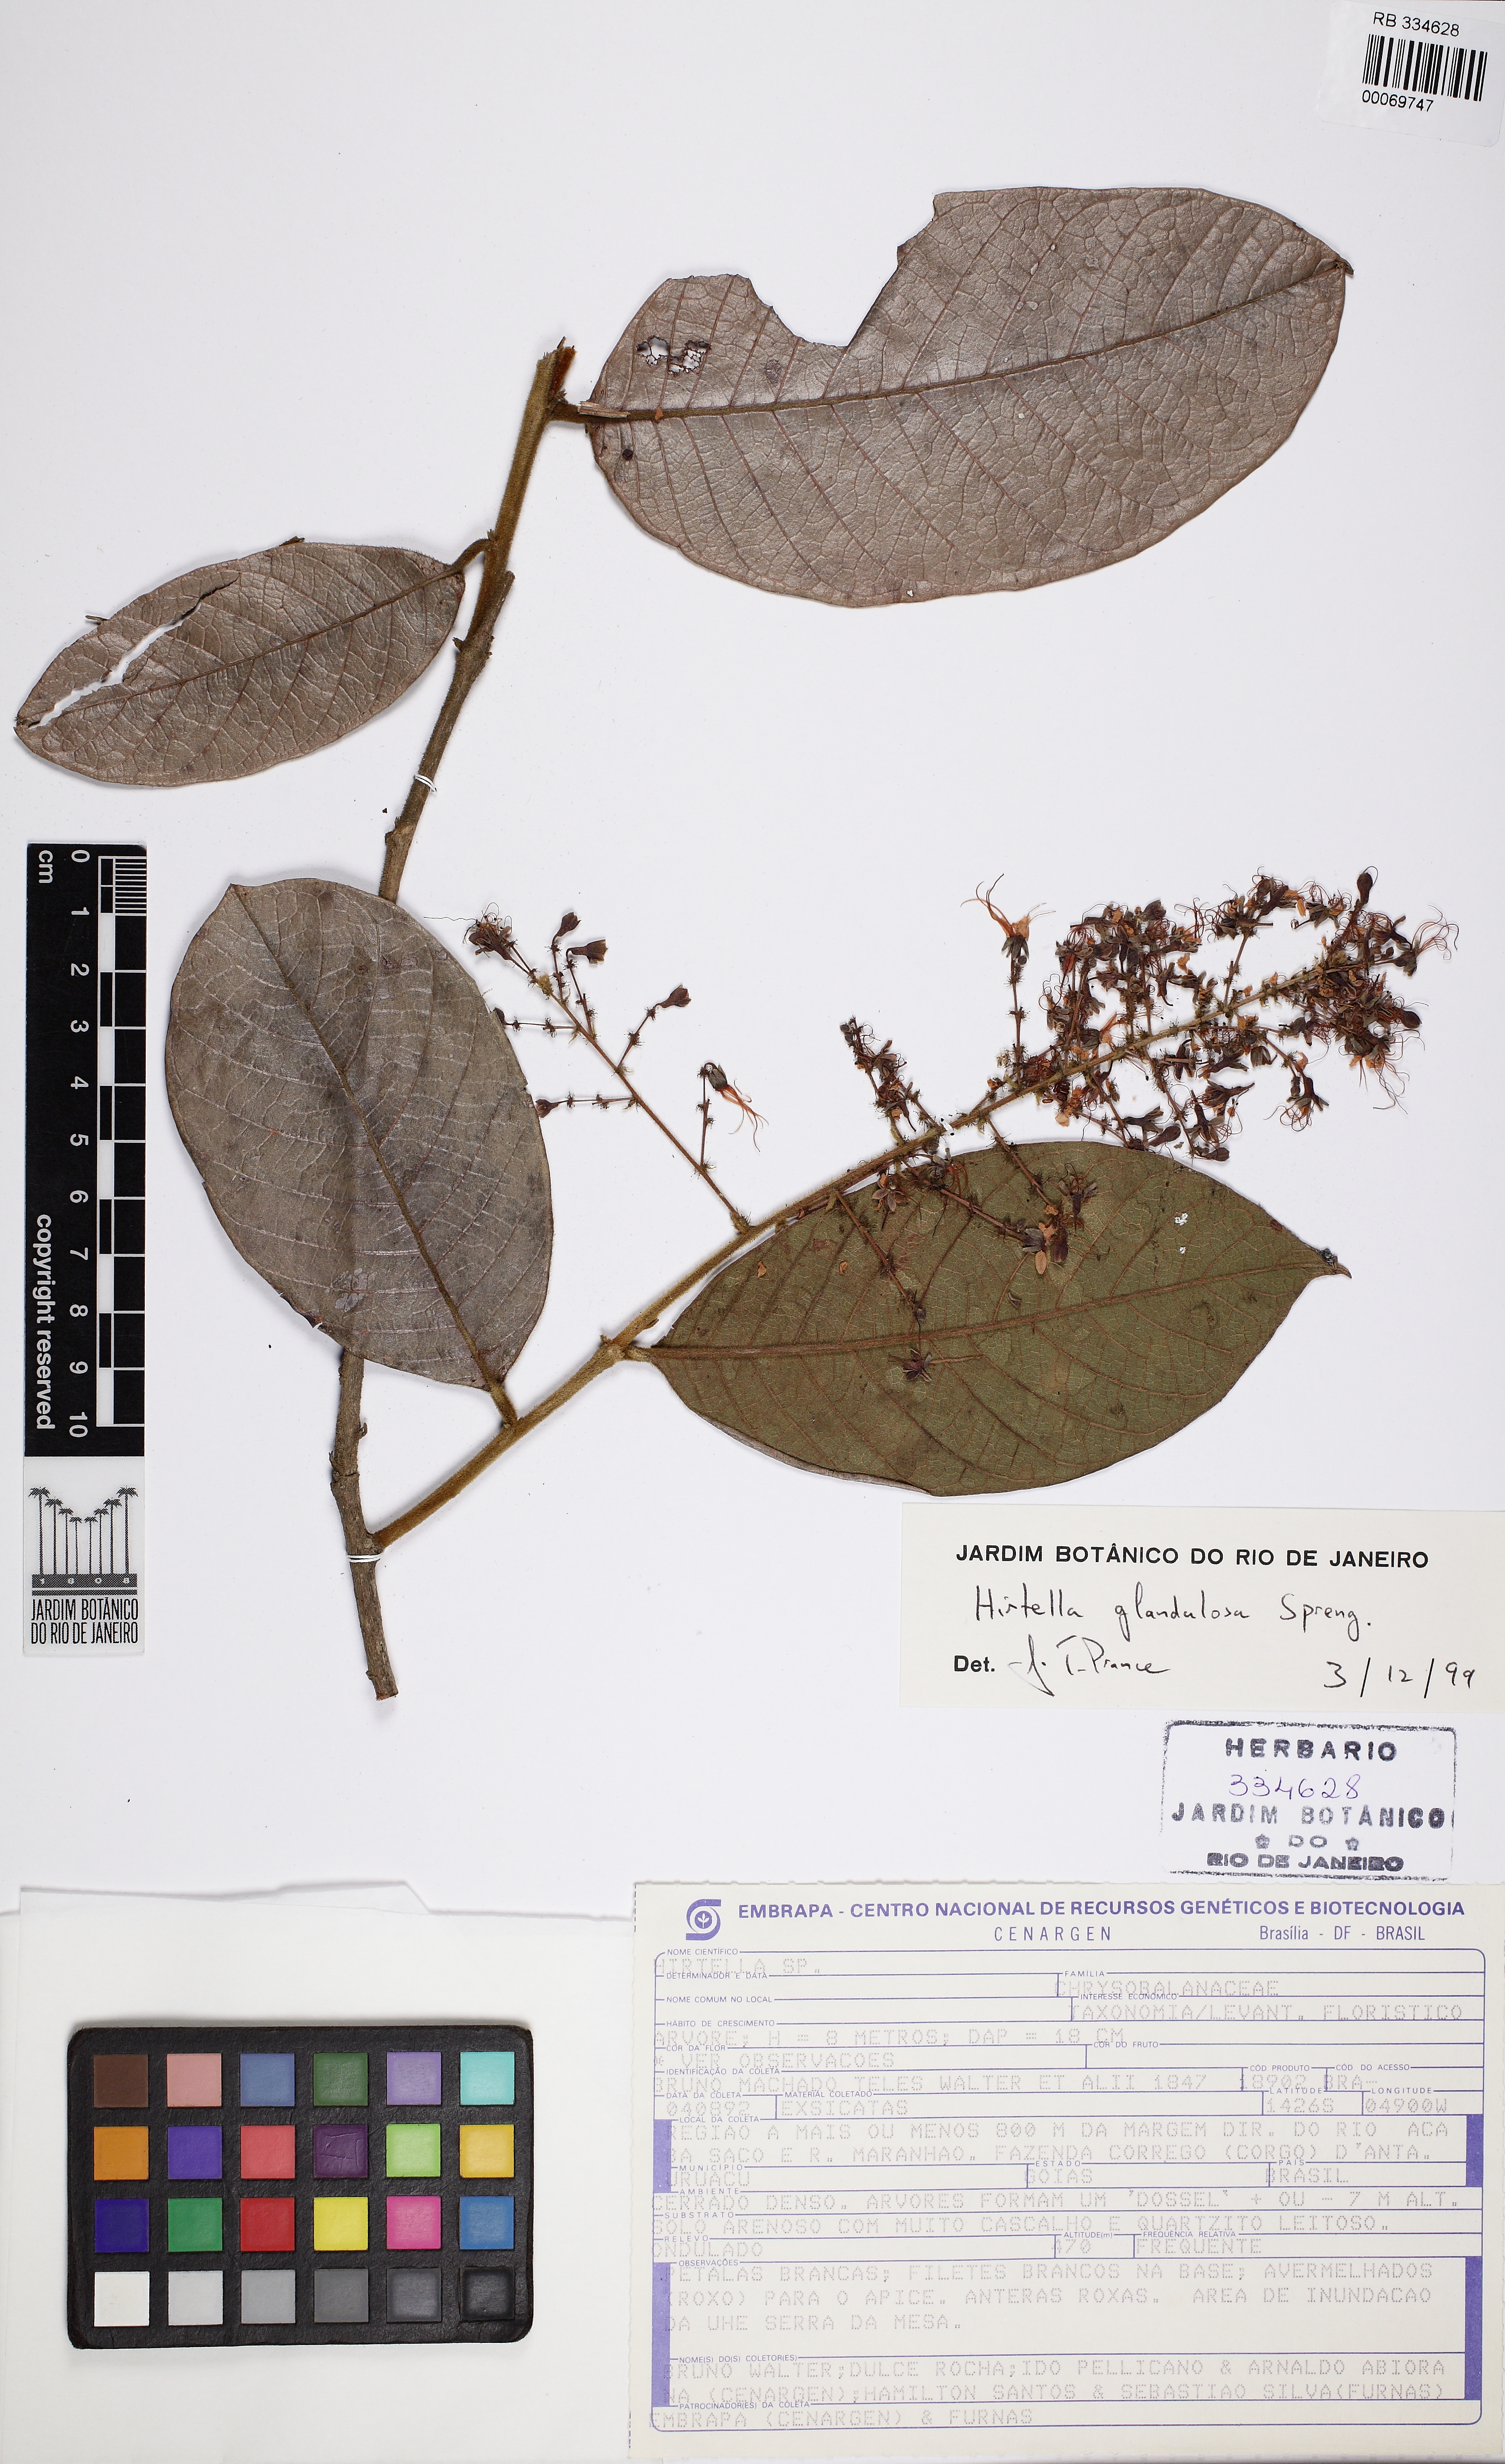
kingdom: Plantae
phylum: Tracheophyta
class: Magnoliopsida
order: Malpighiales
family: Chrysobalanaceae
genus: Hirtella
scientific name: Hirtella
